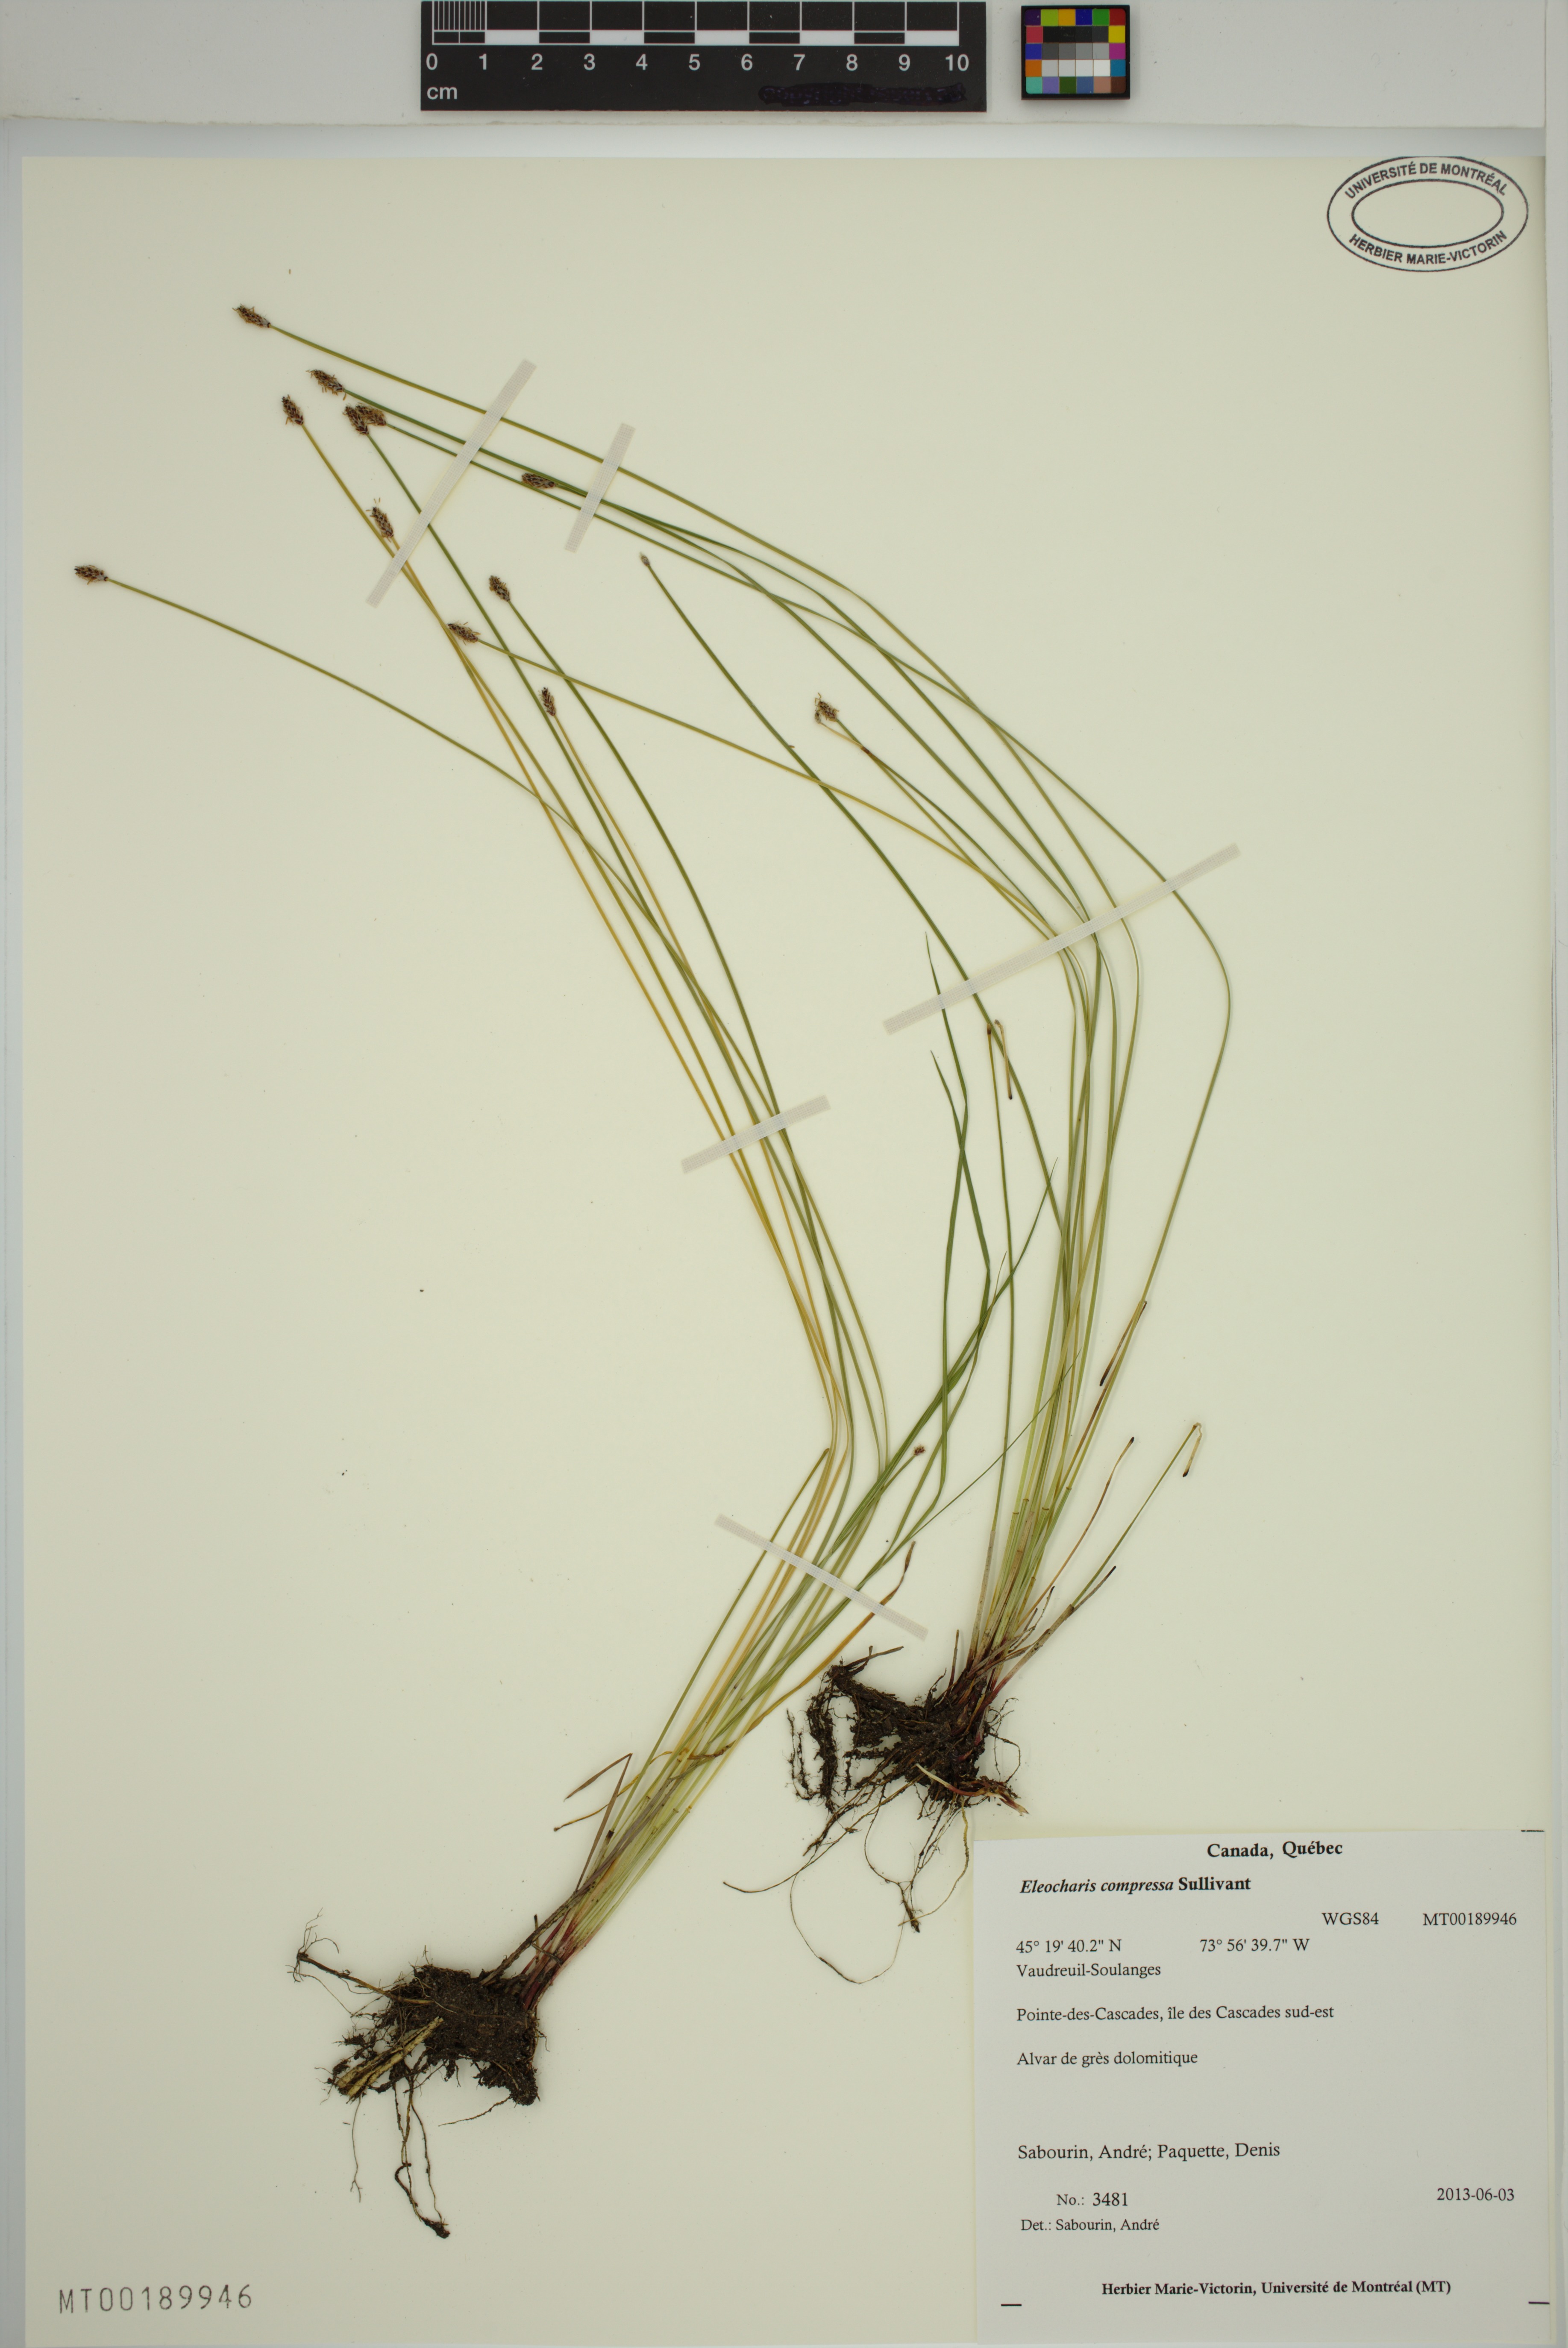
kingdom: Plantae
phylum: Tracheophyta
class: Liliopsida
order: Poales
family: Cyperaceae
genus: Eleocharis
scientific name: Eleocharis compressa
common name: Flat-stem spike-rush
